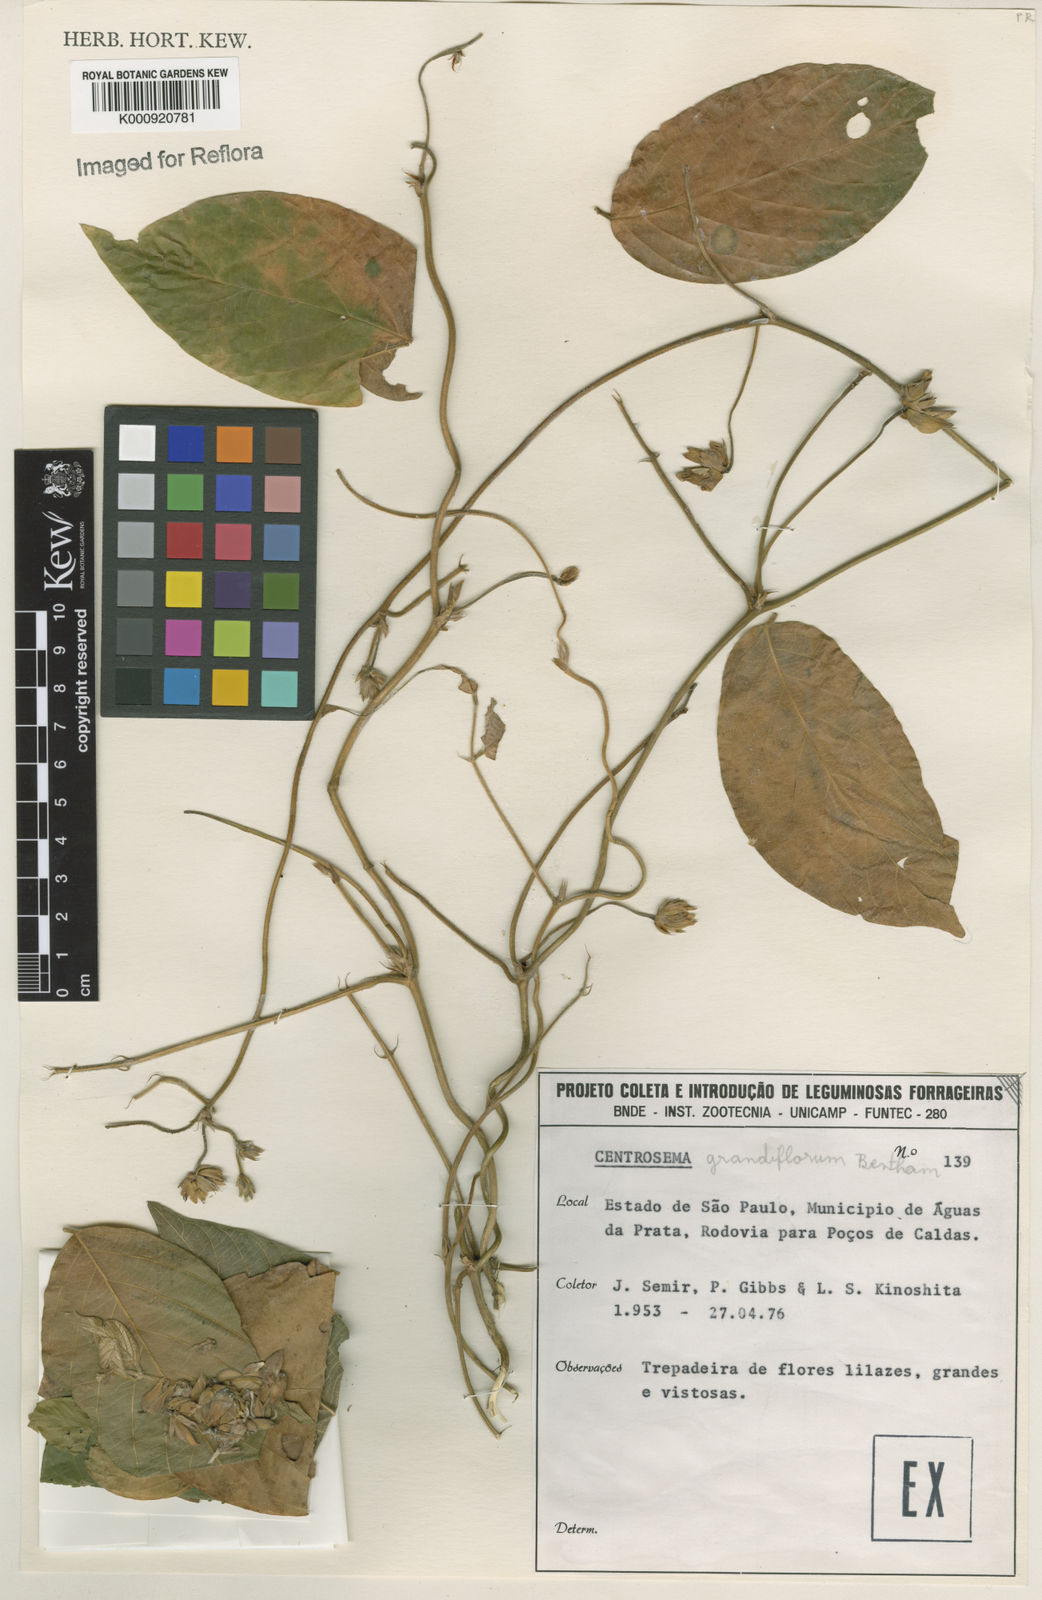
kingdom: Plantae
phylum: Tracheophyta
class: Magnoliopsida
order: Fabales
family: Fabaceae
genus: Centrosema
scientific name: Centrosema grandiflorum
